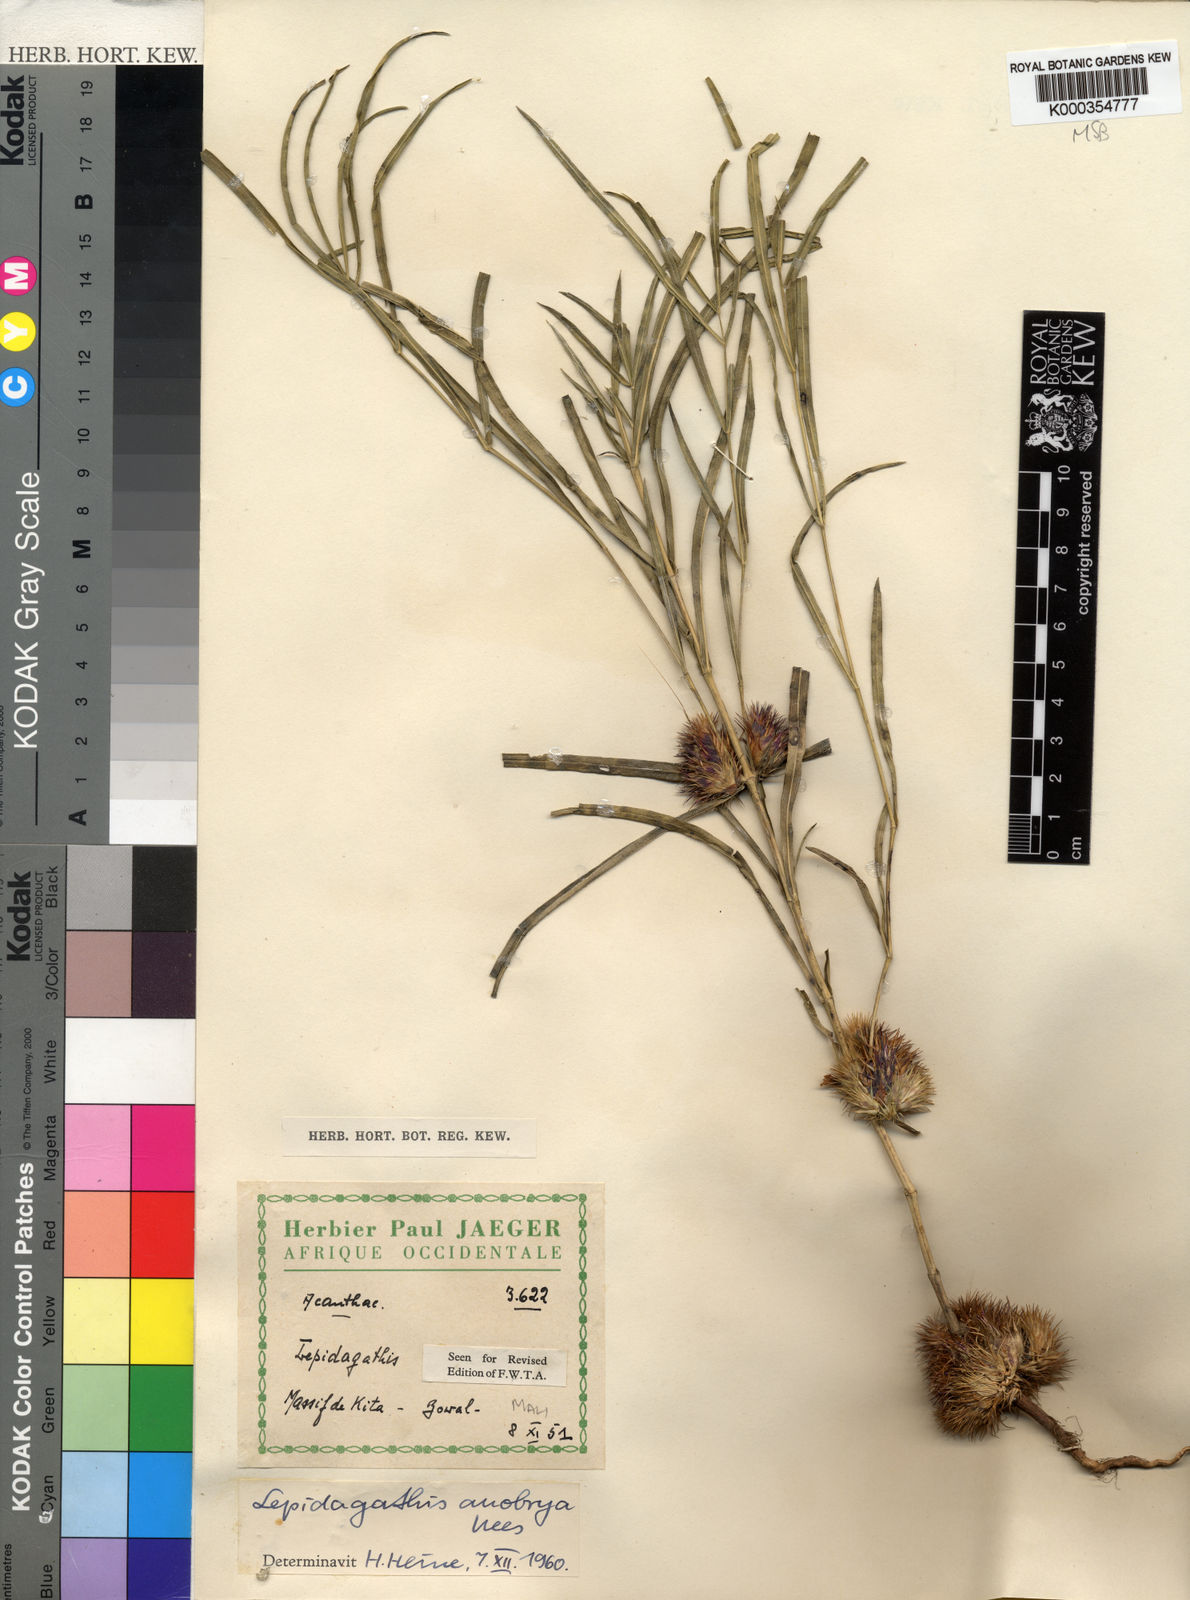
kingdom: Plantae
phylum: Tracheophyta
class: Magnoliopsida
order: Lamiales
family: Acanthaceae
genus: Lepidagathis
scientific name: Lepidagathis anobrya
